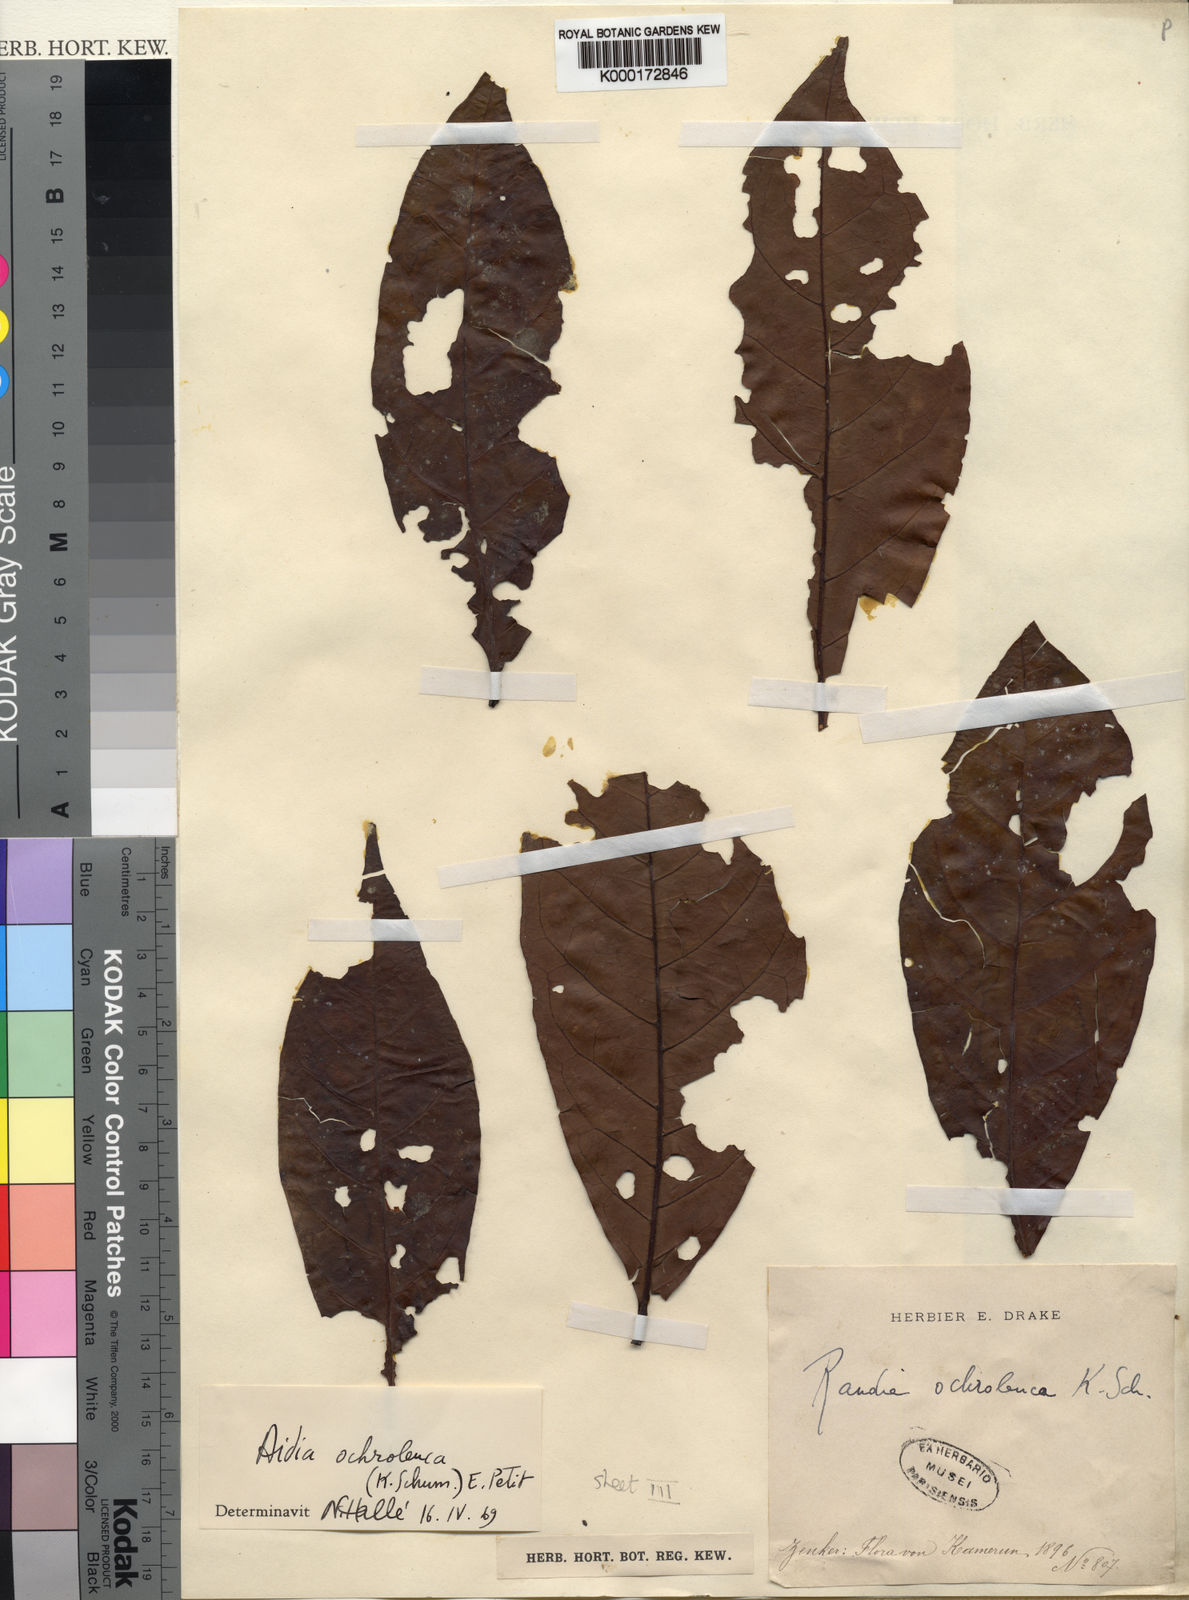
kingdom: Plantae
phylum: Tracheophyta
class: Magnoliopsida
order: Gentianales
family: Rubiaceae
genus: Aidia
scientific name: Aidia ochroleuca
